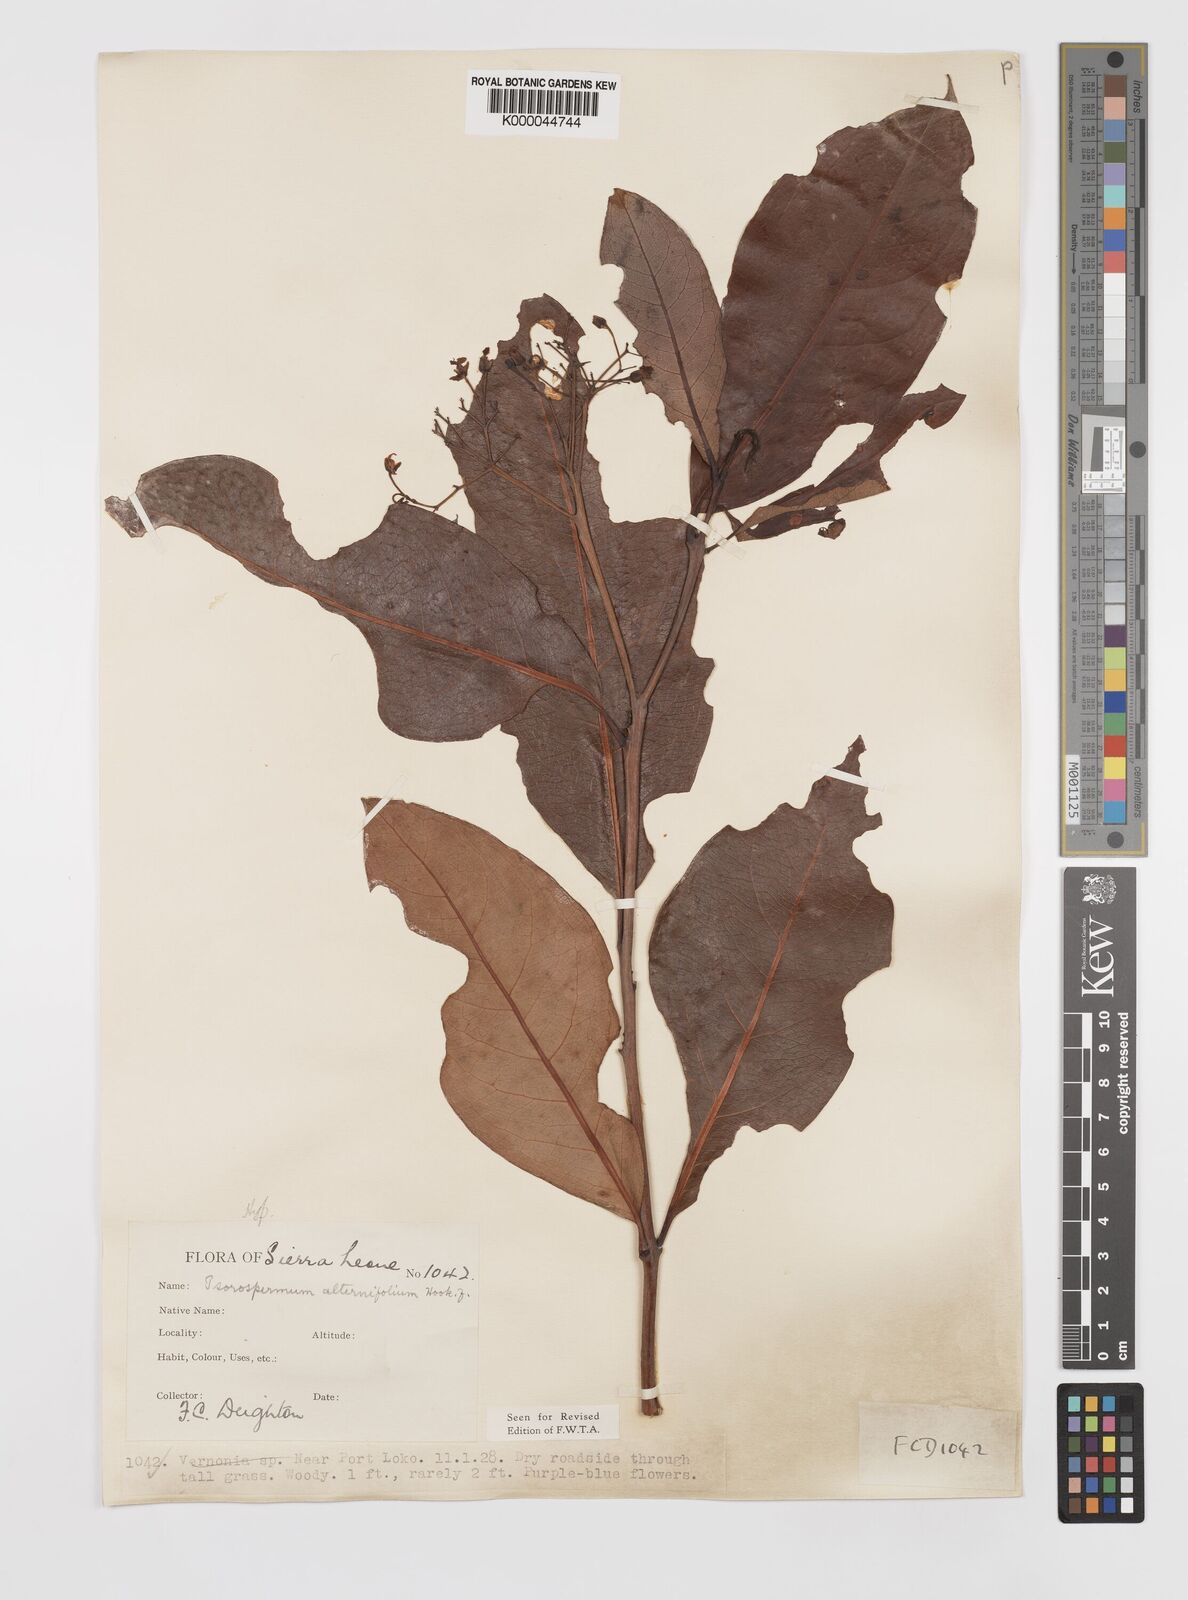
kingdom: Plantae
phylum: Tracheophyta
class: Magnoliopsida
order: Malpighiales
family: Hypericaceae
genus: Psorospermum
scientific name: Psorospermum alternifolium
